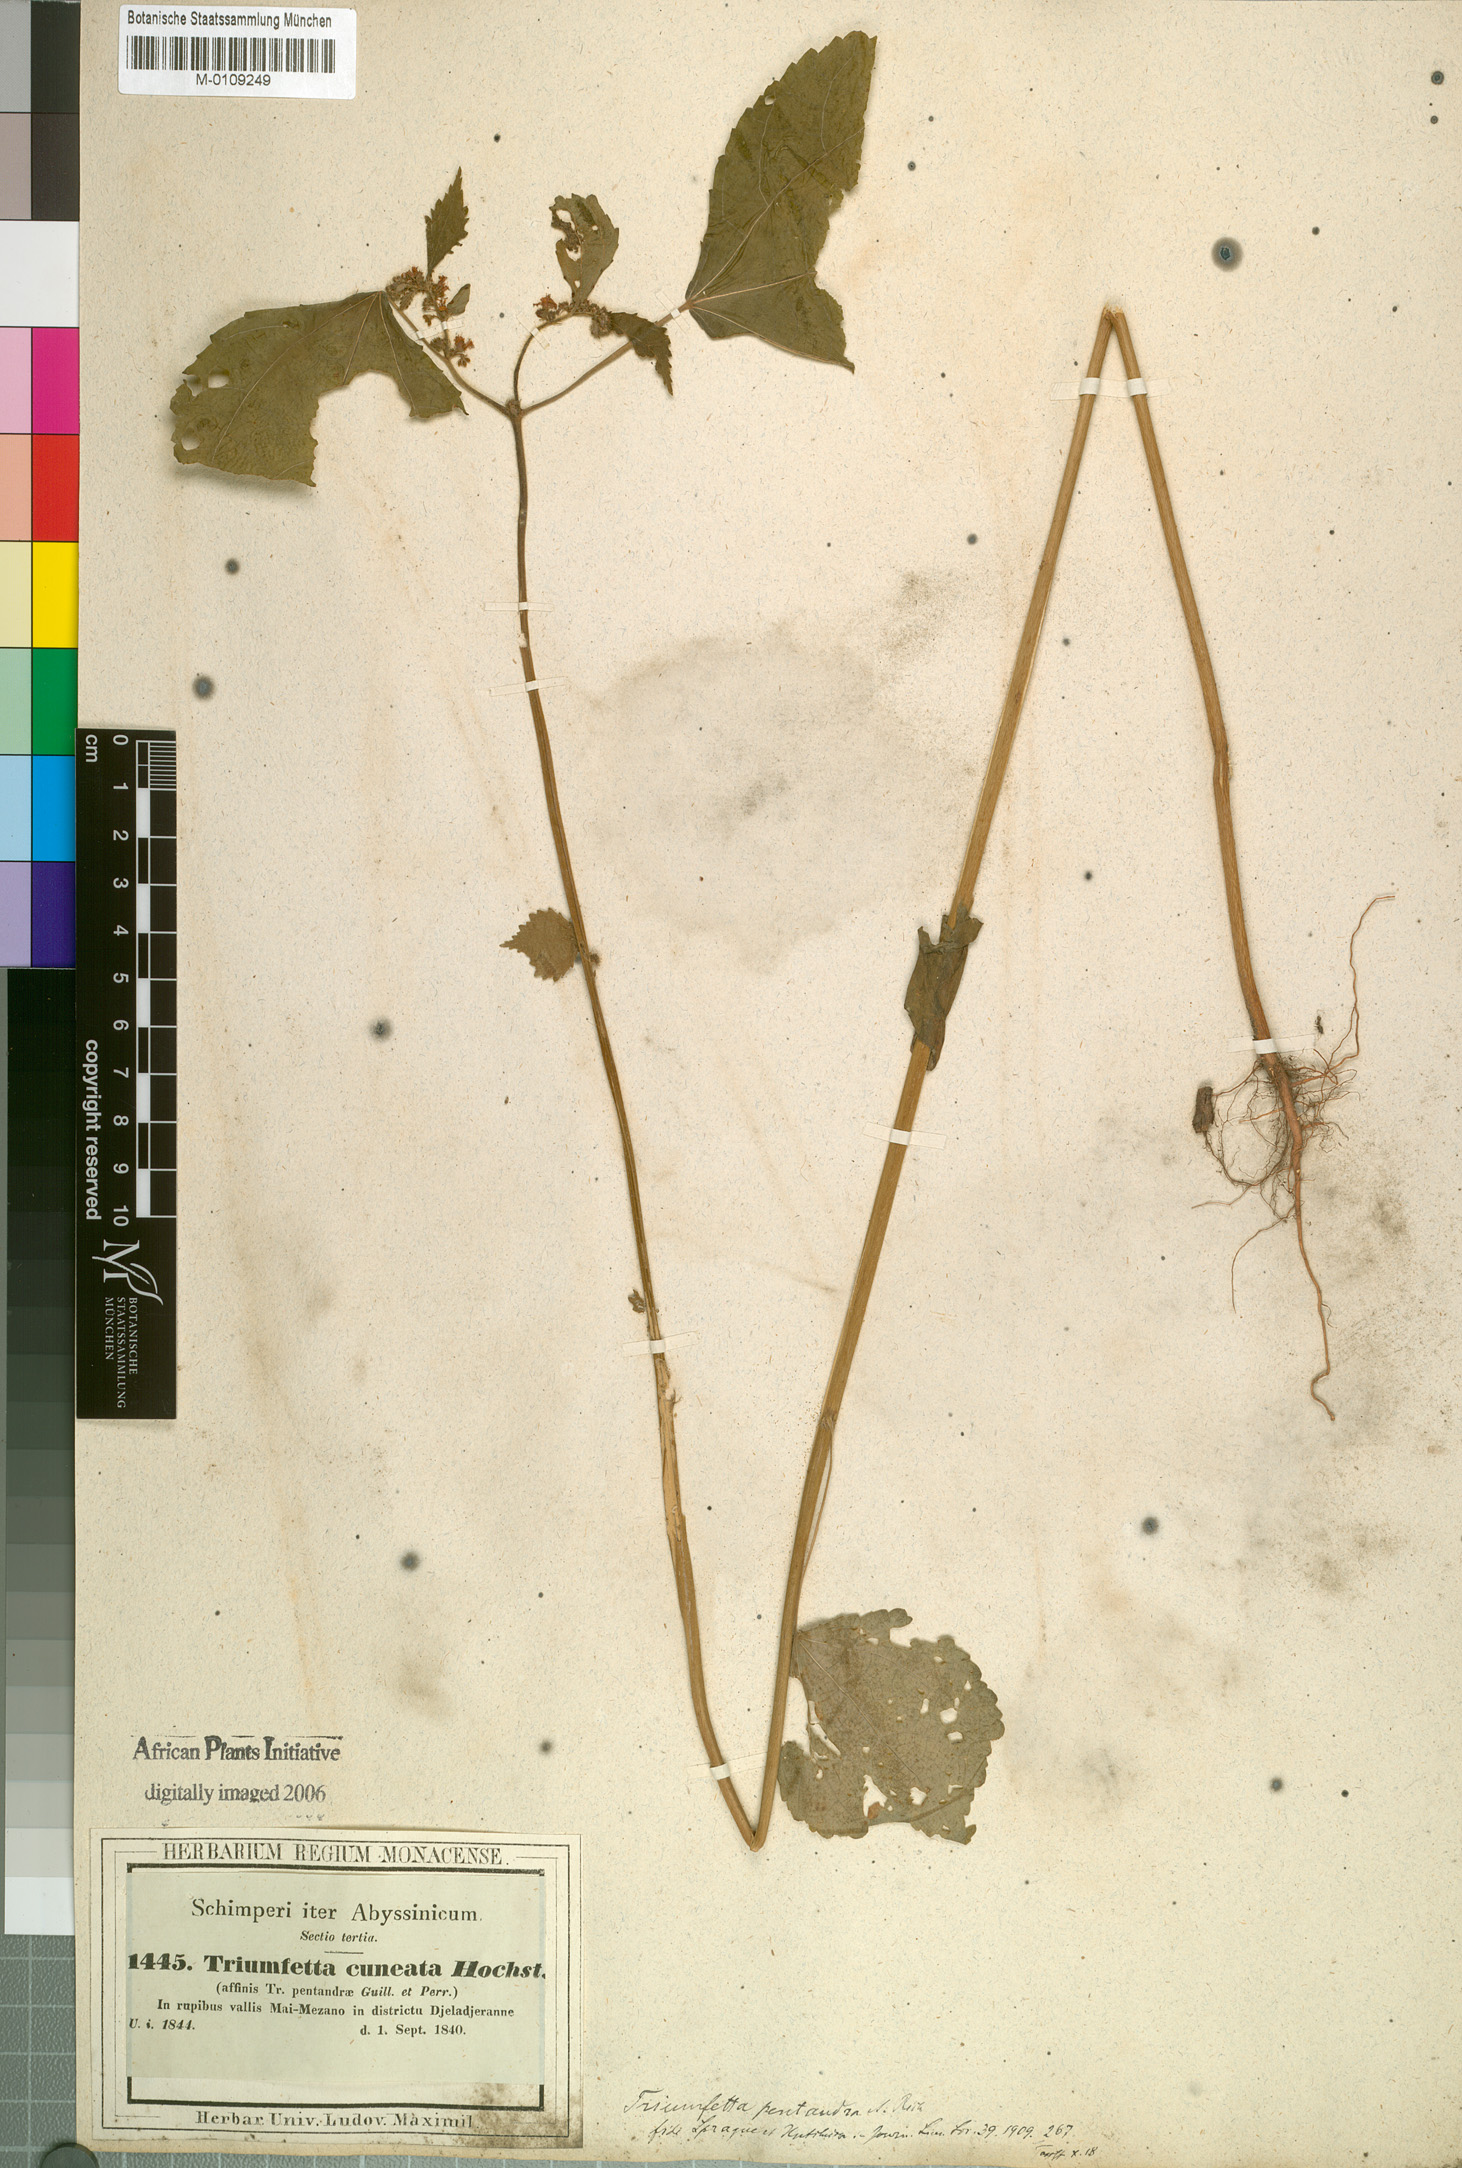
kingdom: Plantae
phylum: Tracheophyta
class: Magnoliopsida
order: Malvales
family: Malvaceae
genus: Triumfetta
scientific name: Triumfetta pentandra
